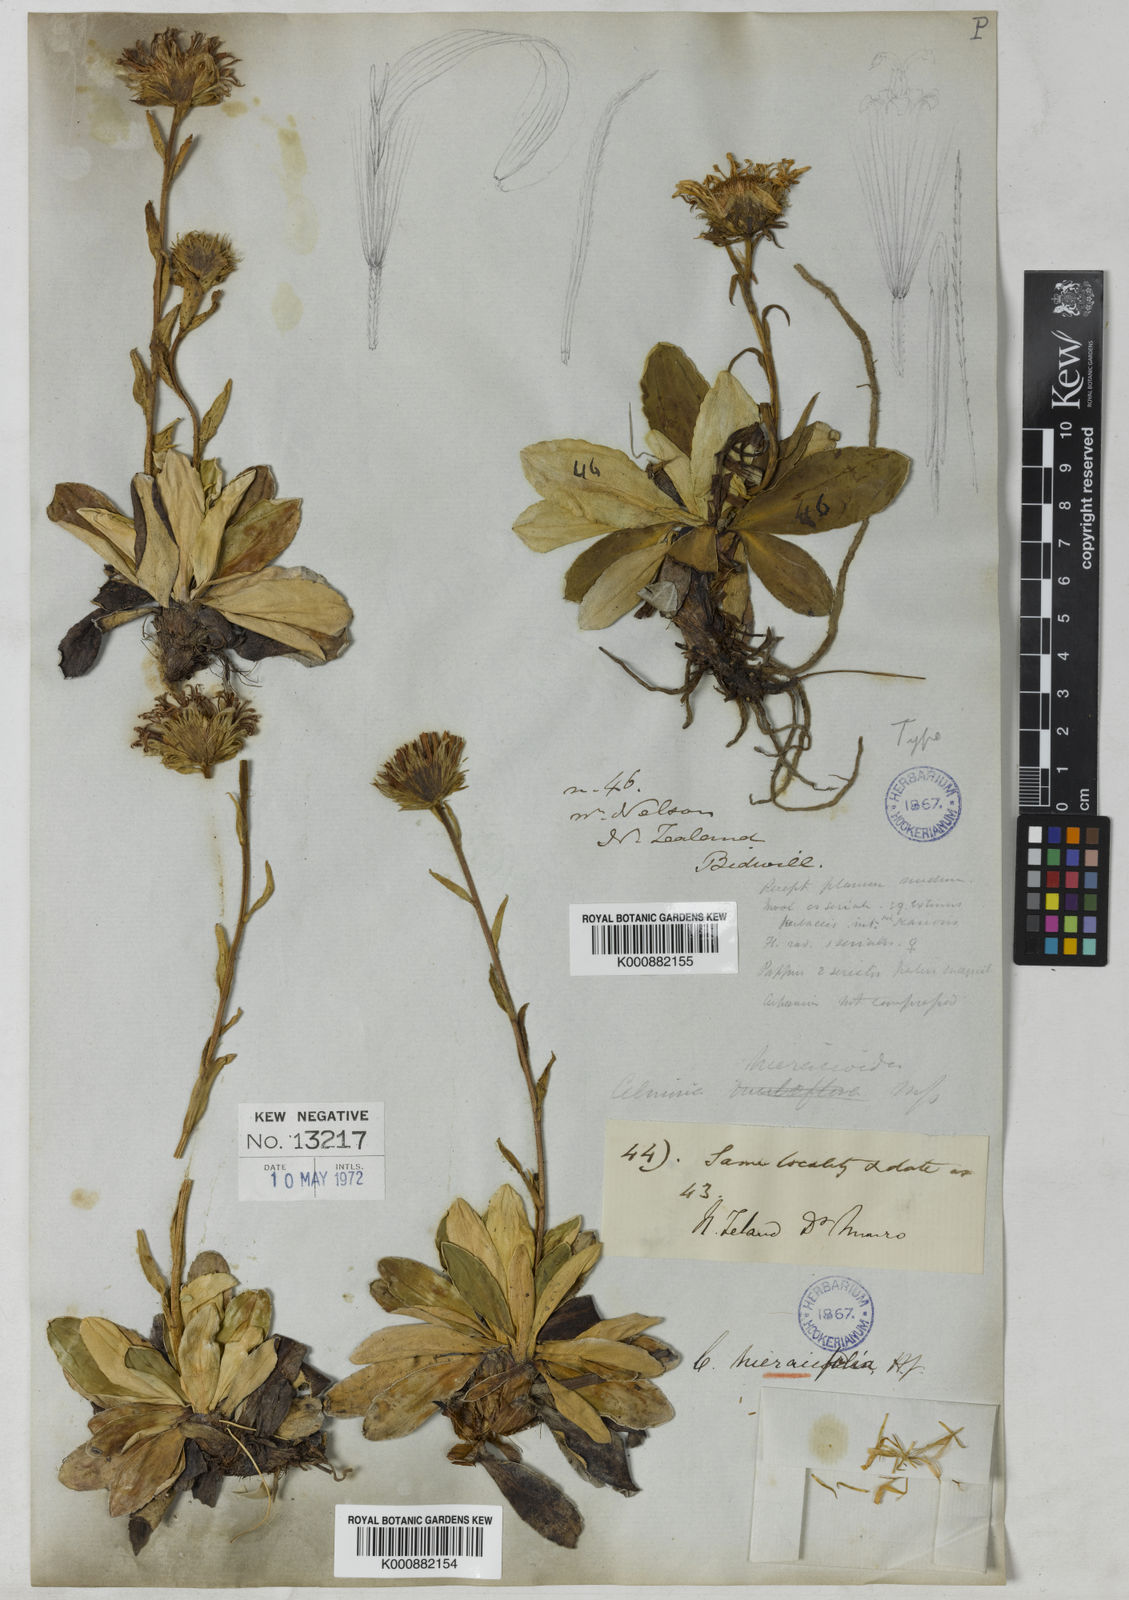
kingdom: Plantae
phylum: Tracheophyta
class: Magnoliopsida
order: Asterales
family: Asteraceae
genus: Celmisia
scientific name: Celmisia hieraciifolia
